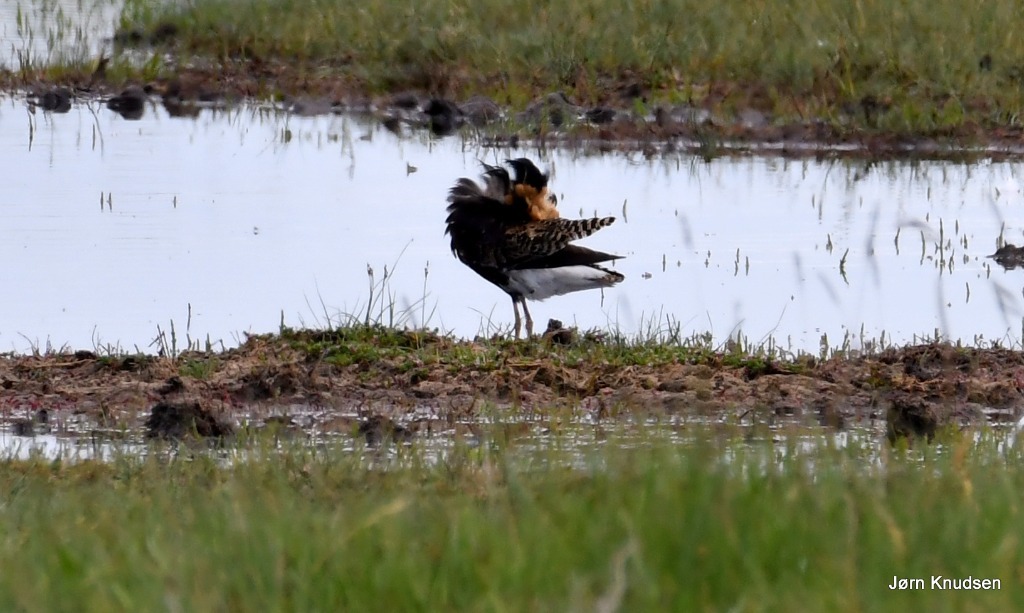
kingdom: Animalia
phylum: Chordata
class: Aves
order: Charadriiformes
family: Scolopacidae
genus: Calidris
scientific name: Calidris pugnax
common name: Brushane
